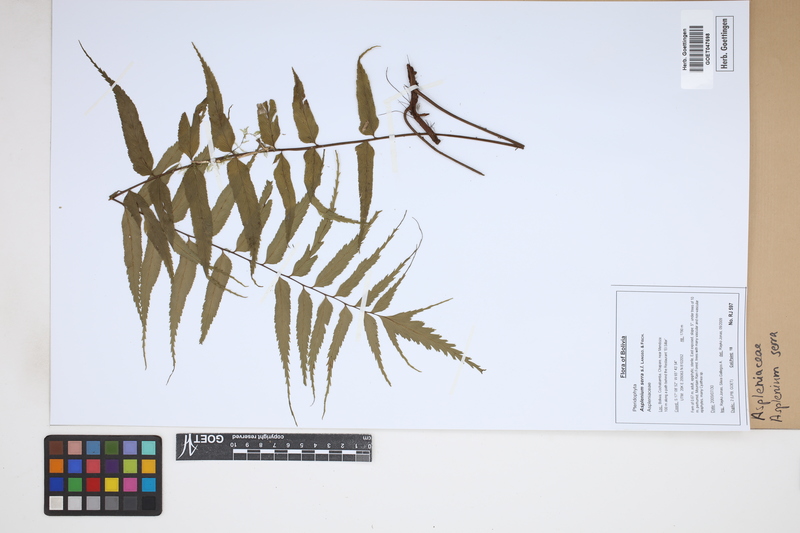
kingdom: Plantae
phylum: Tracheophyta
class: Polypodiopsida
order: Polypodiales
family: Aspleniaceae
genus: Asplenium
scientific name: Asplenium serra
